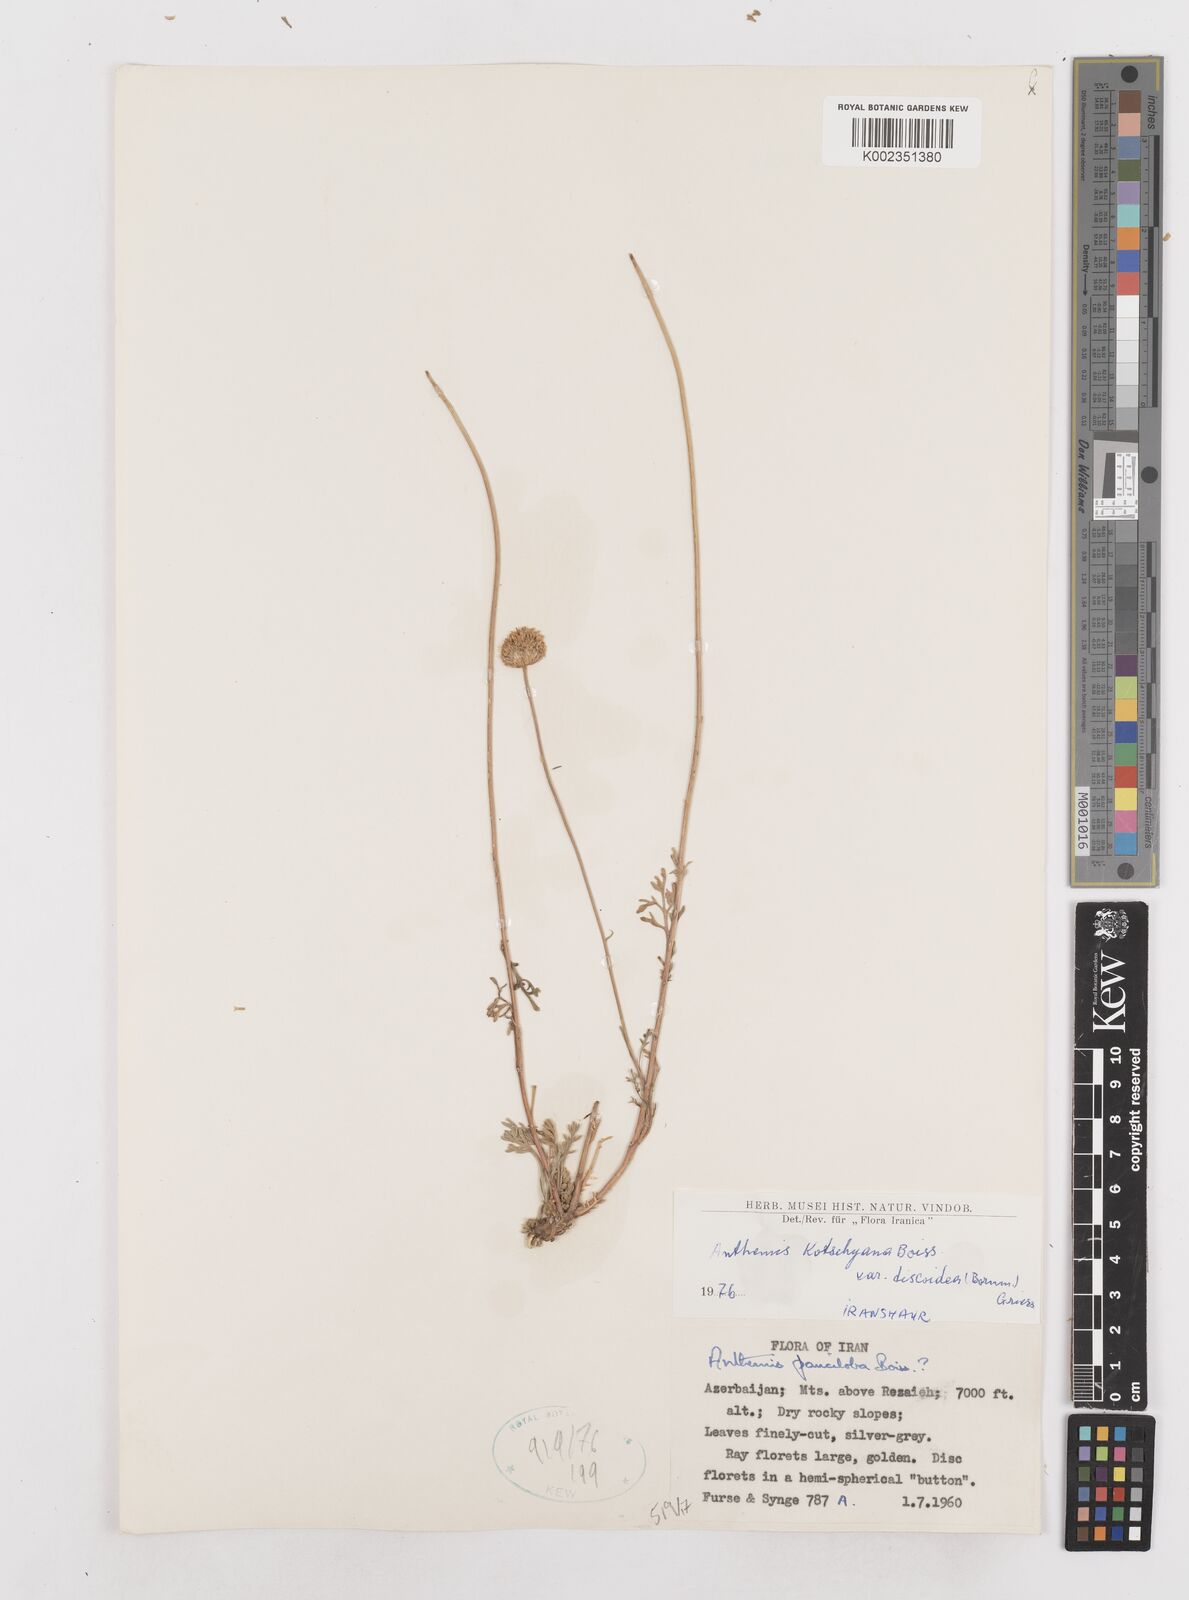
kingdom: Plantae
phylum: Tracheophyta
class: Magnoliopsida
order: Asterales
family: Asteraceae
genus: Anthemis
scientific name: Anthemis kotschyana
